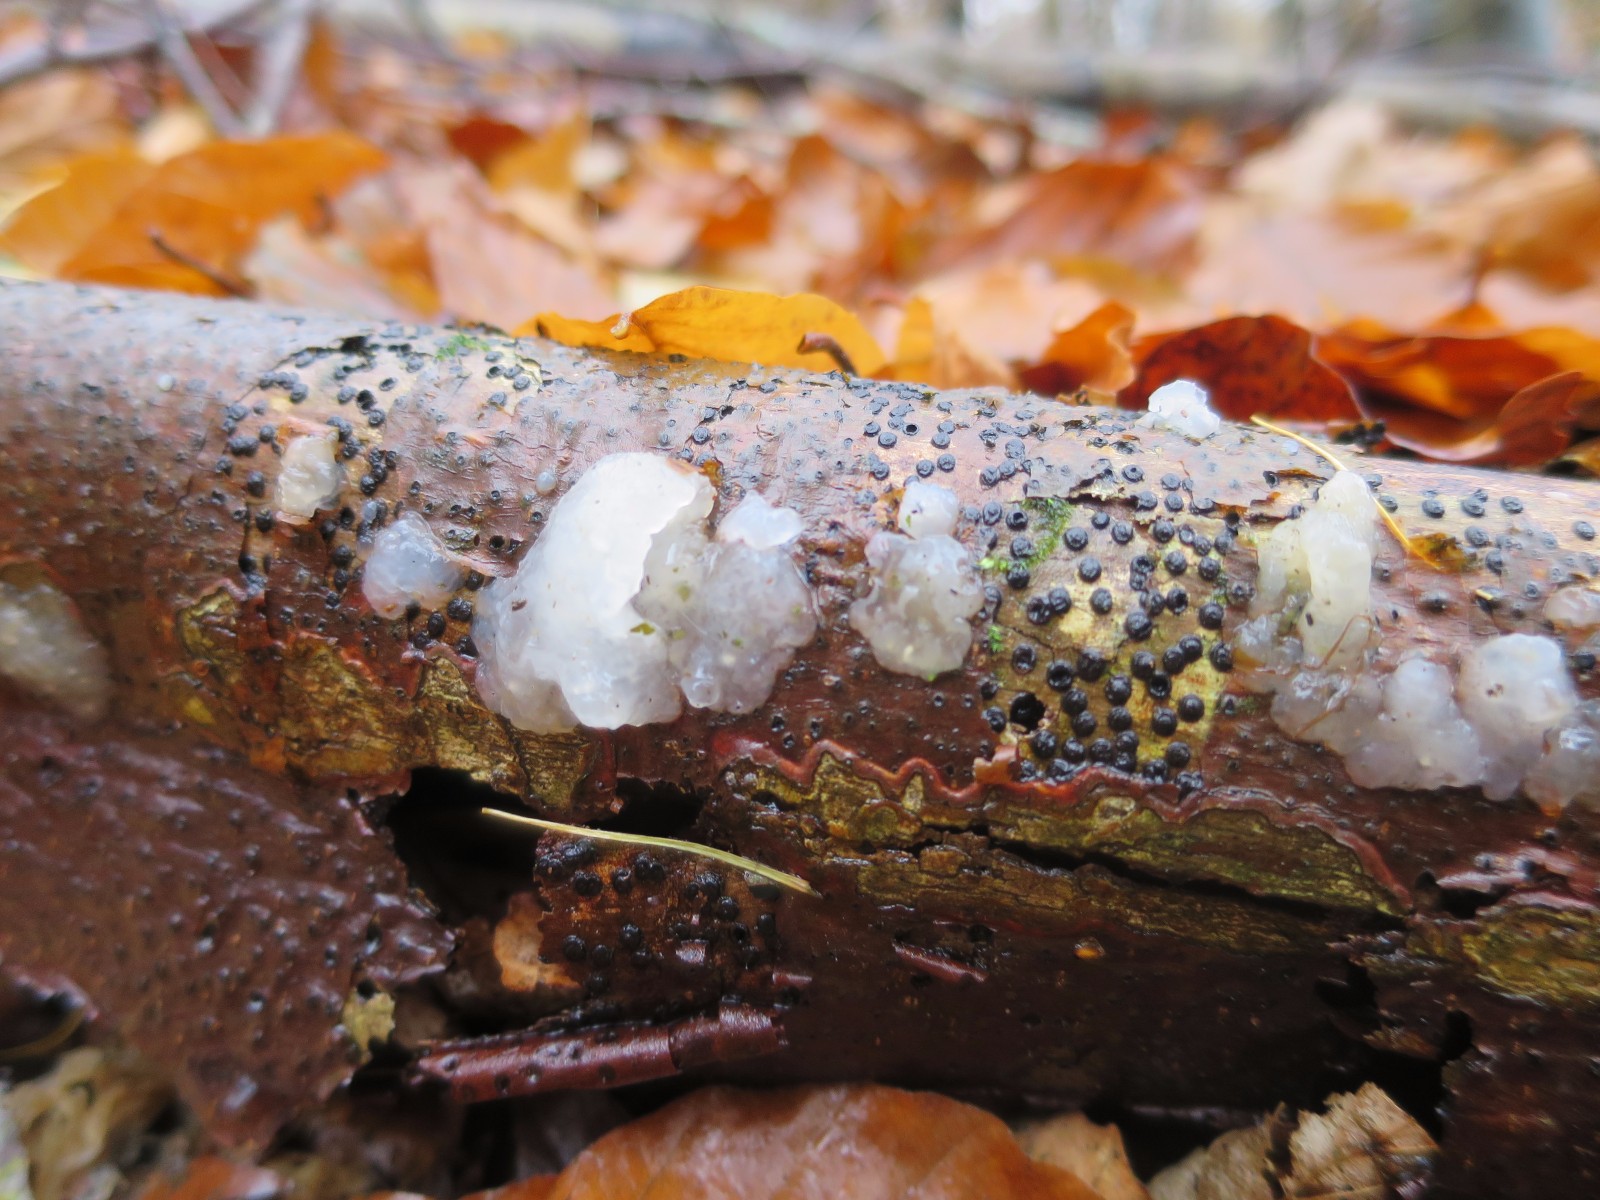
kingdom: Fungi
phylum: Basidiomycota
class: Agaricomycetes
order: Auriculariales
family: Hyaloriaceae
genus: Myxarium
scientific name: Myxarium nucleatum
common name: klar bævretop
